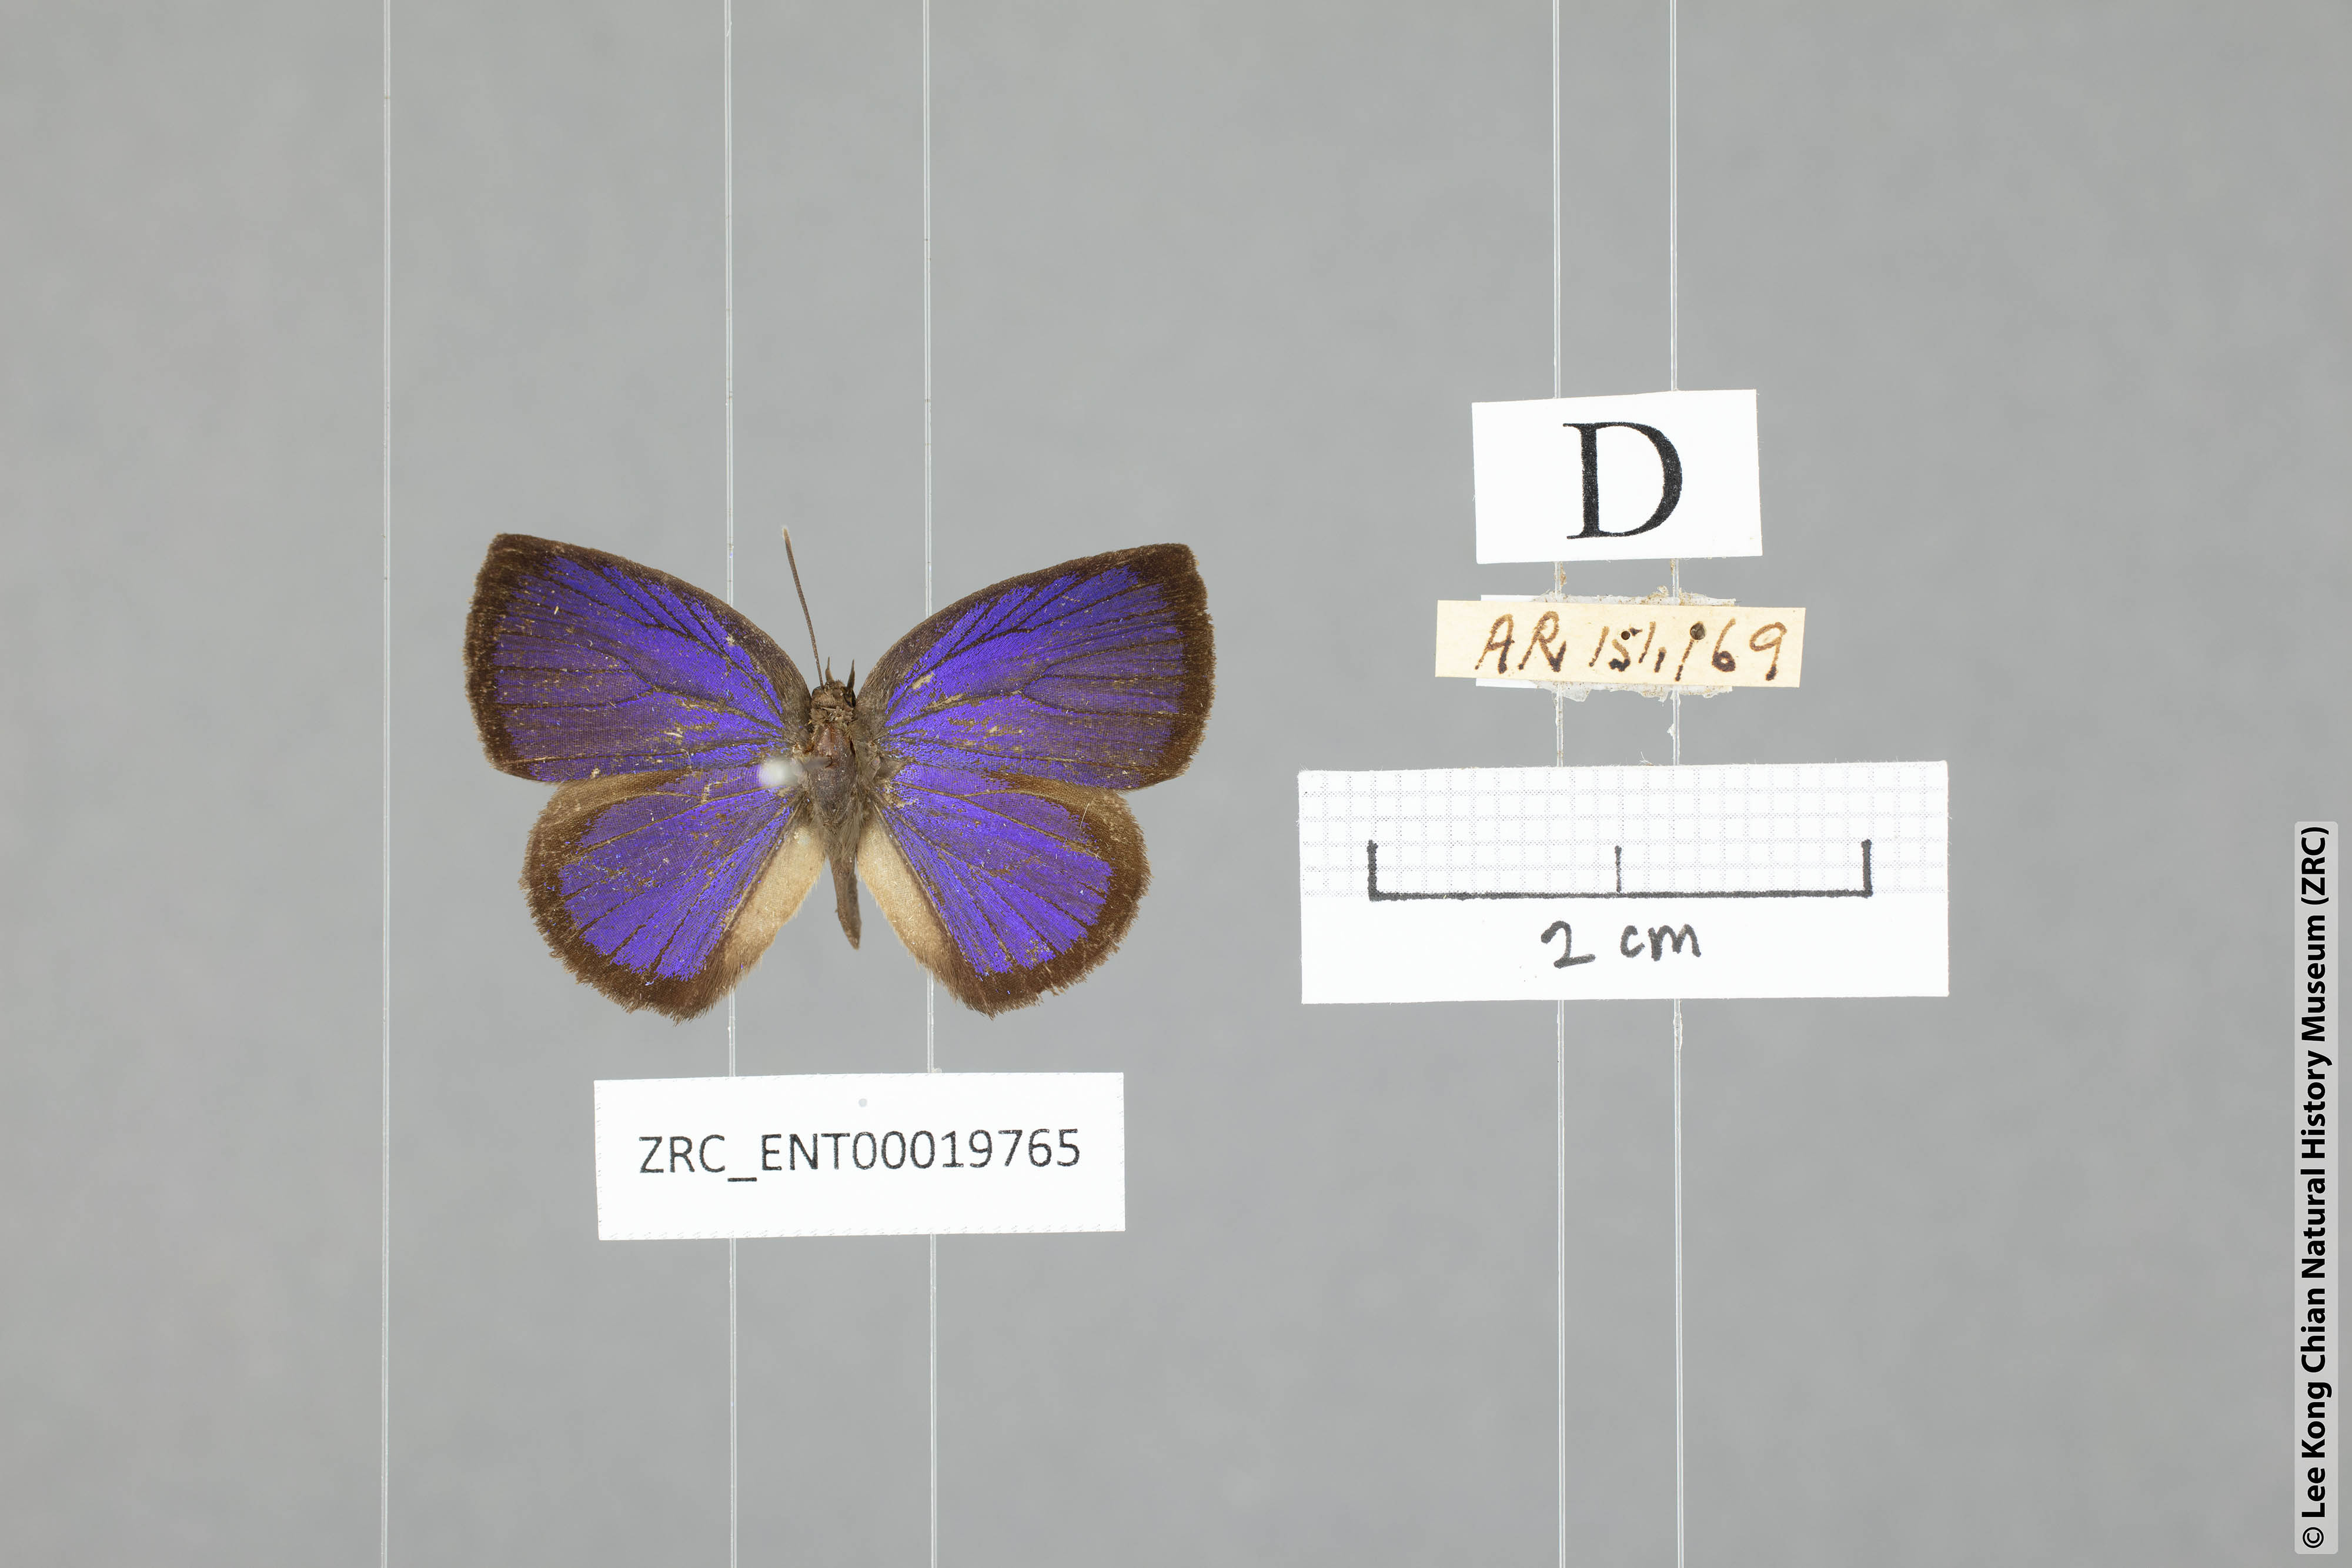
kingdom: Animalia
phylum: Arthropoda
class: Insecta
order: Lepidoptera
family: Lycaenidae
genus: Arhopala
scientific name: Arhopala perimuta
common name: Yellowdisc oakblue
